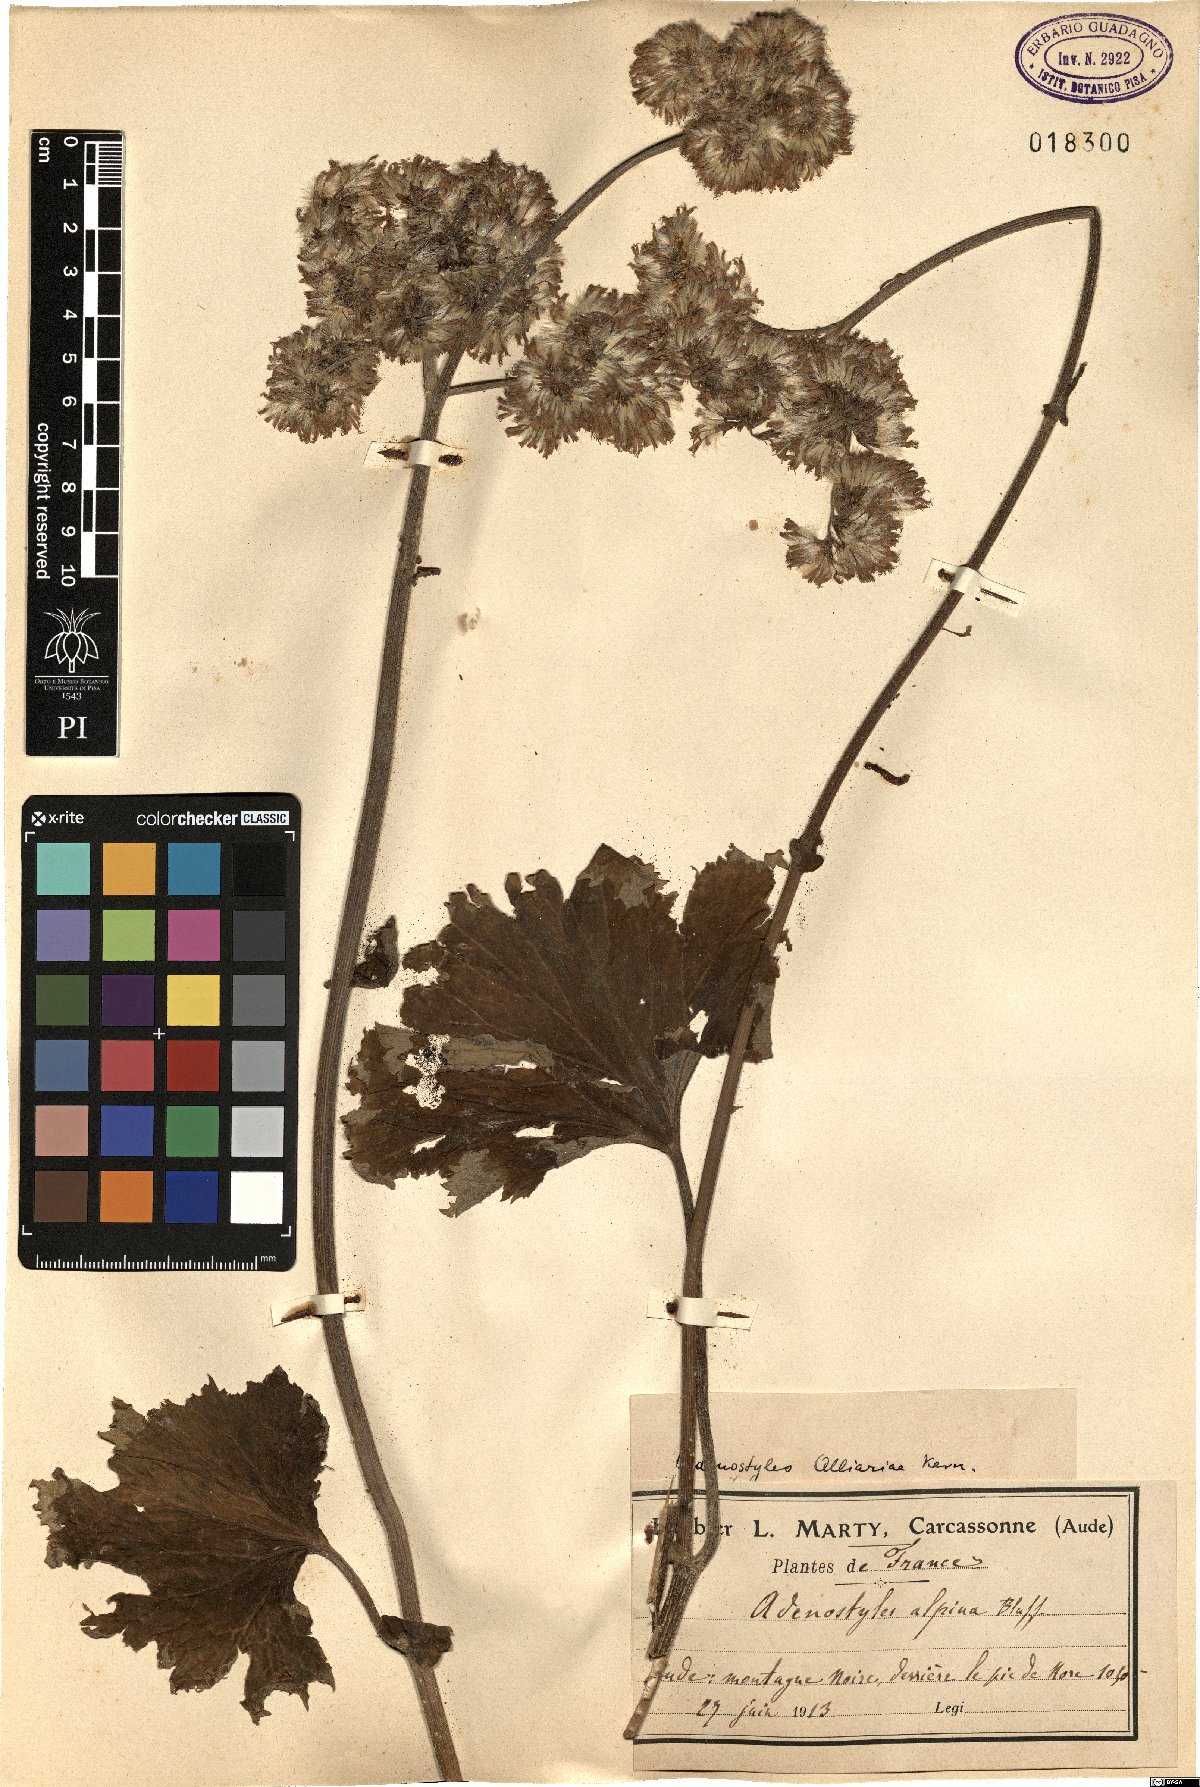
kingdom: Plantae
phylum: Tracheophyta
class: Magnoliopsida
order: Asterales
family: Asteraceae
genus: Adenostyles
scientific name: Adenostyles alliariae
